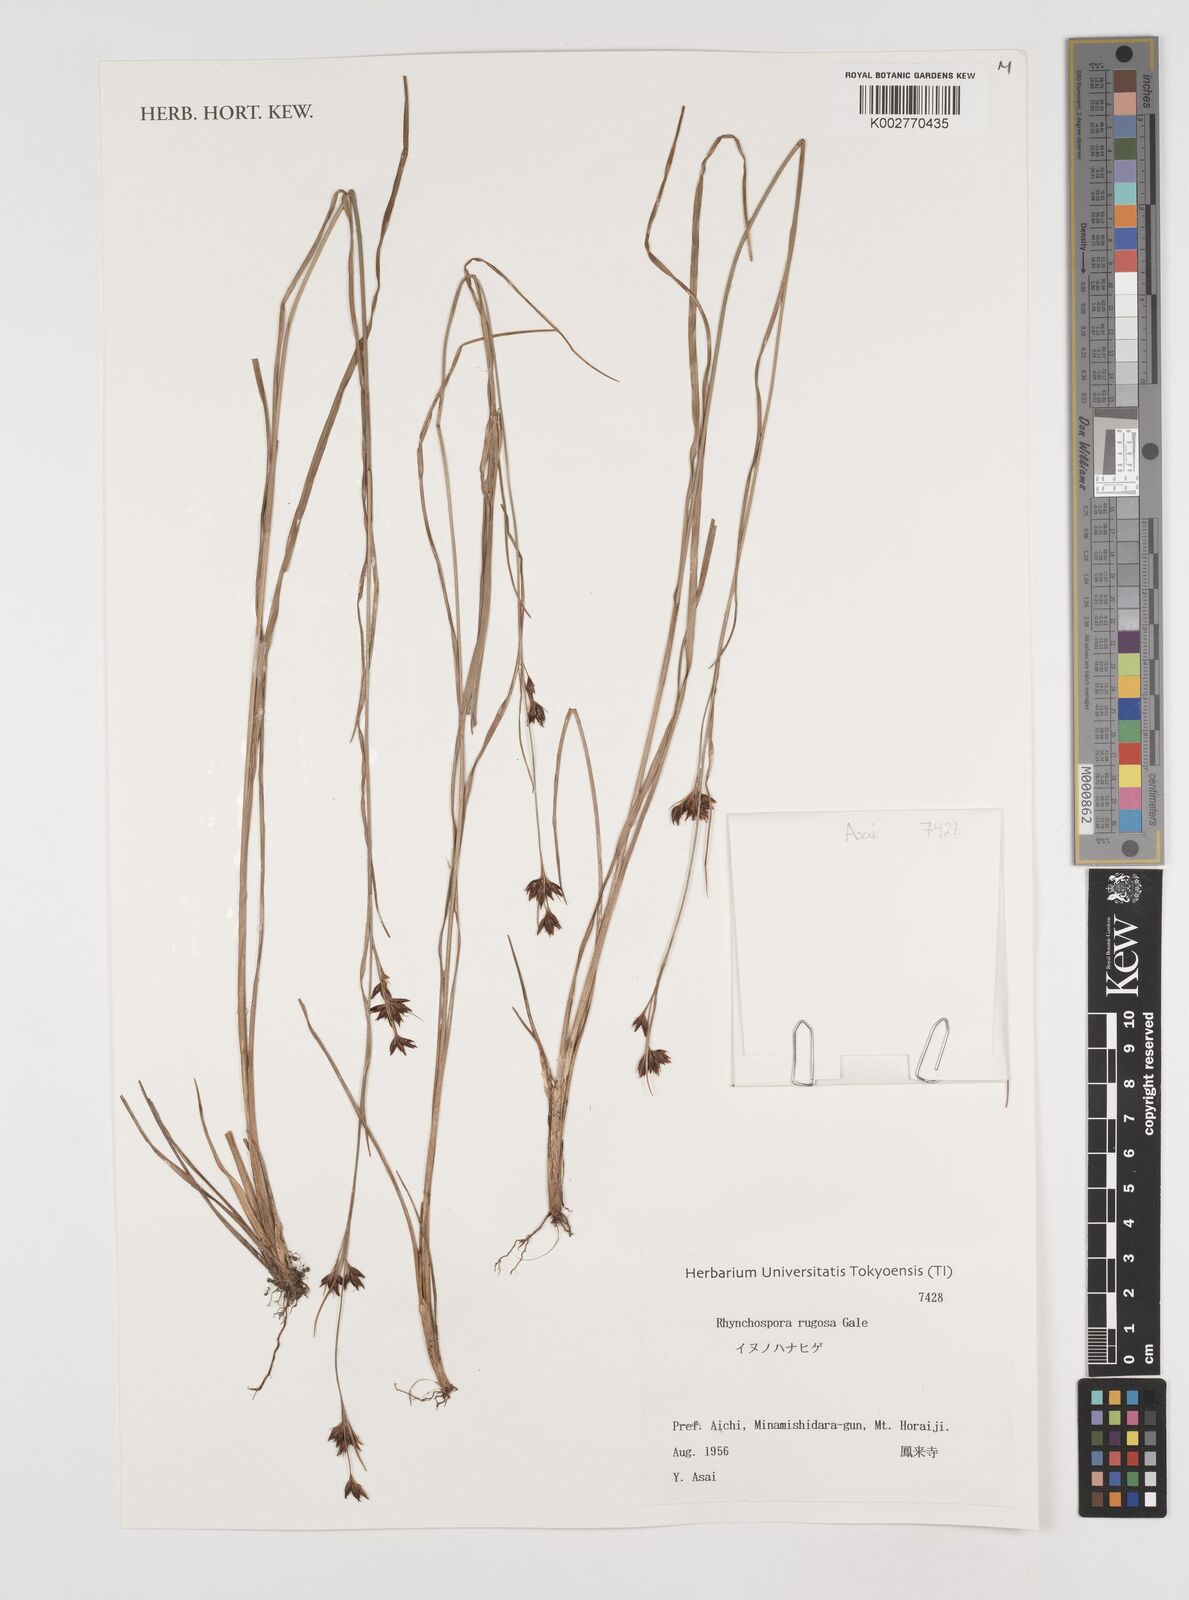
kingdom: Plantae
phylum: Tracheophyta
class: Liliopsida
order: Poales
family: Cyperaceae
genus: Rhynchospora
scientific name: Rhynchospora rugosa
